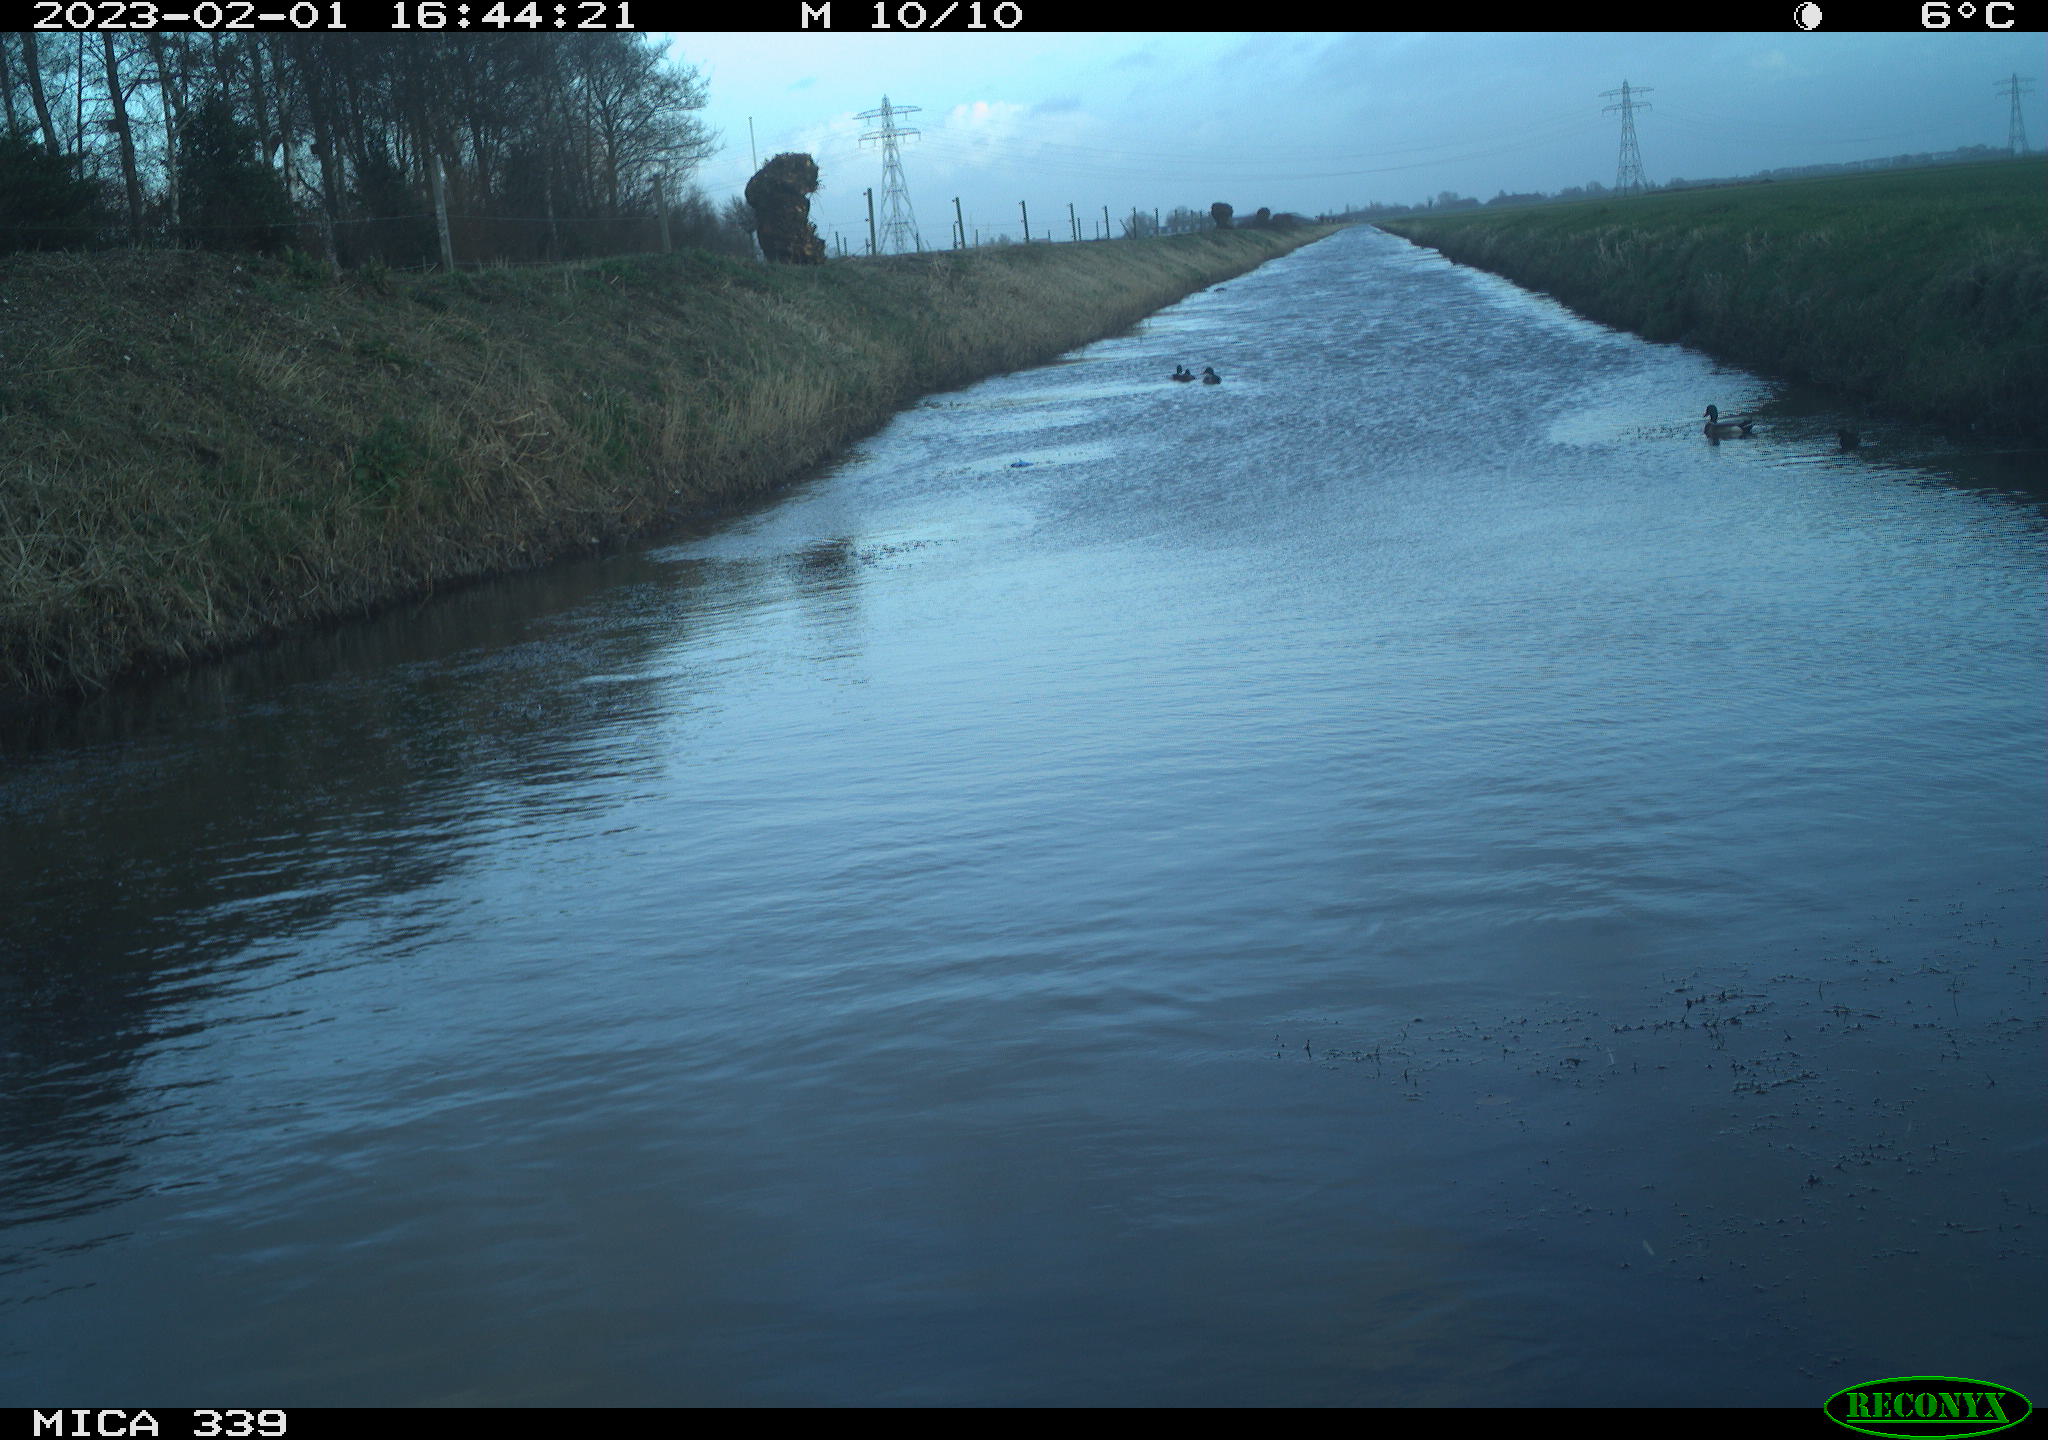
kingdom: Animalia
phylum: Chordata
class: Aves
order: Pelecaniformes
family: Ardeidae
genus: Ardea
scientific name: Ardea cinerea
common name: Grey heron
